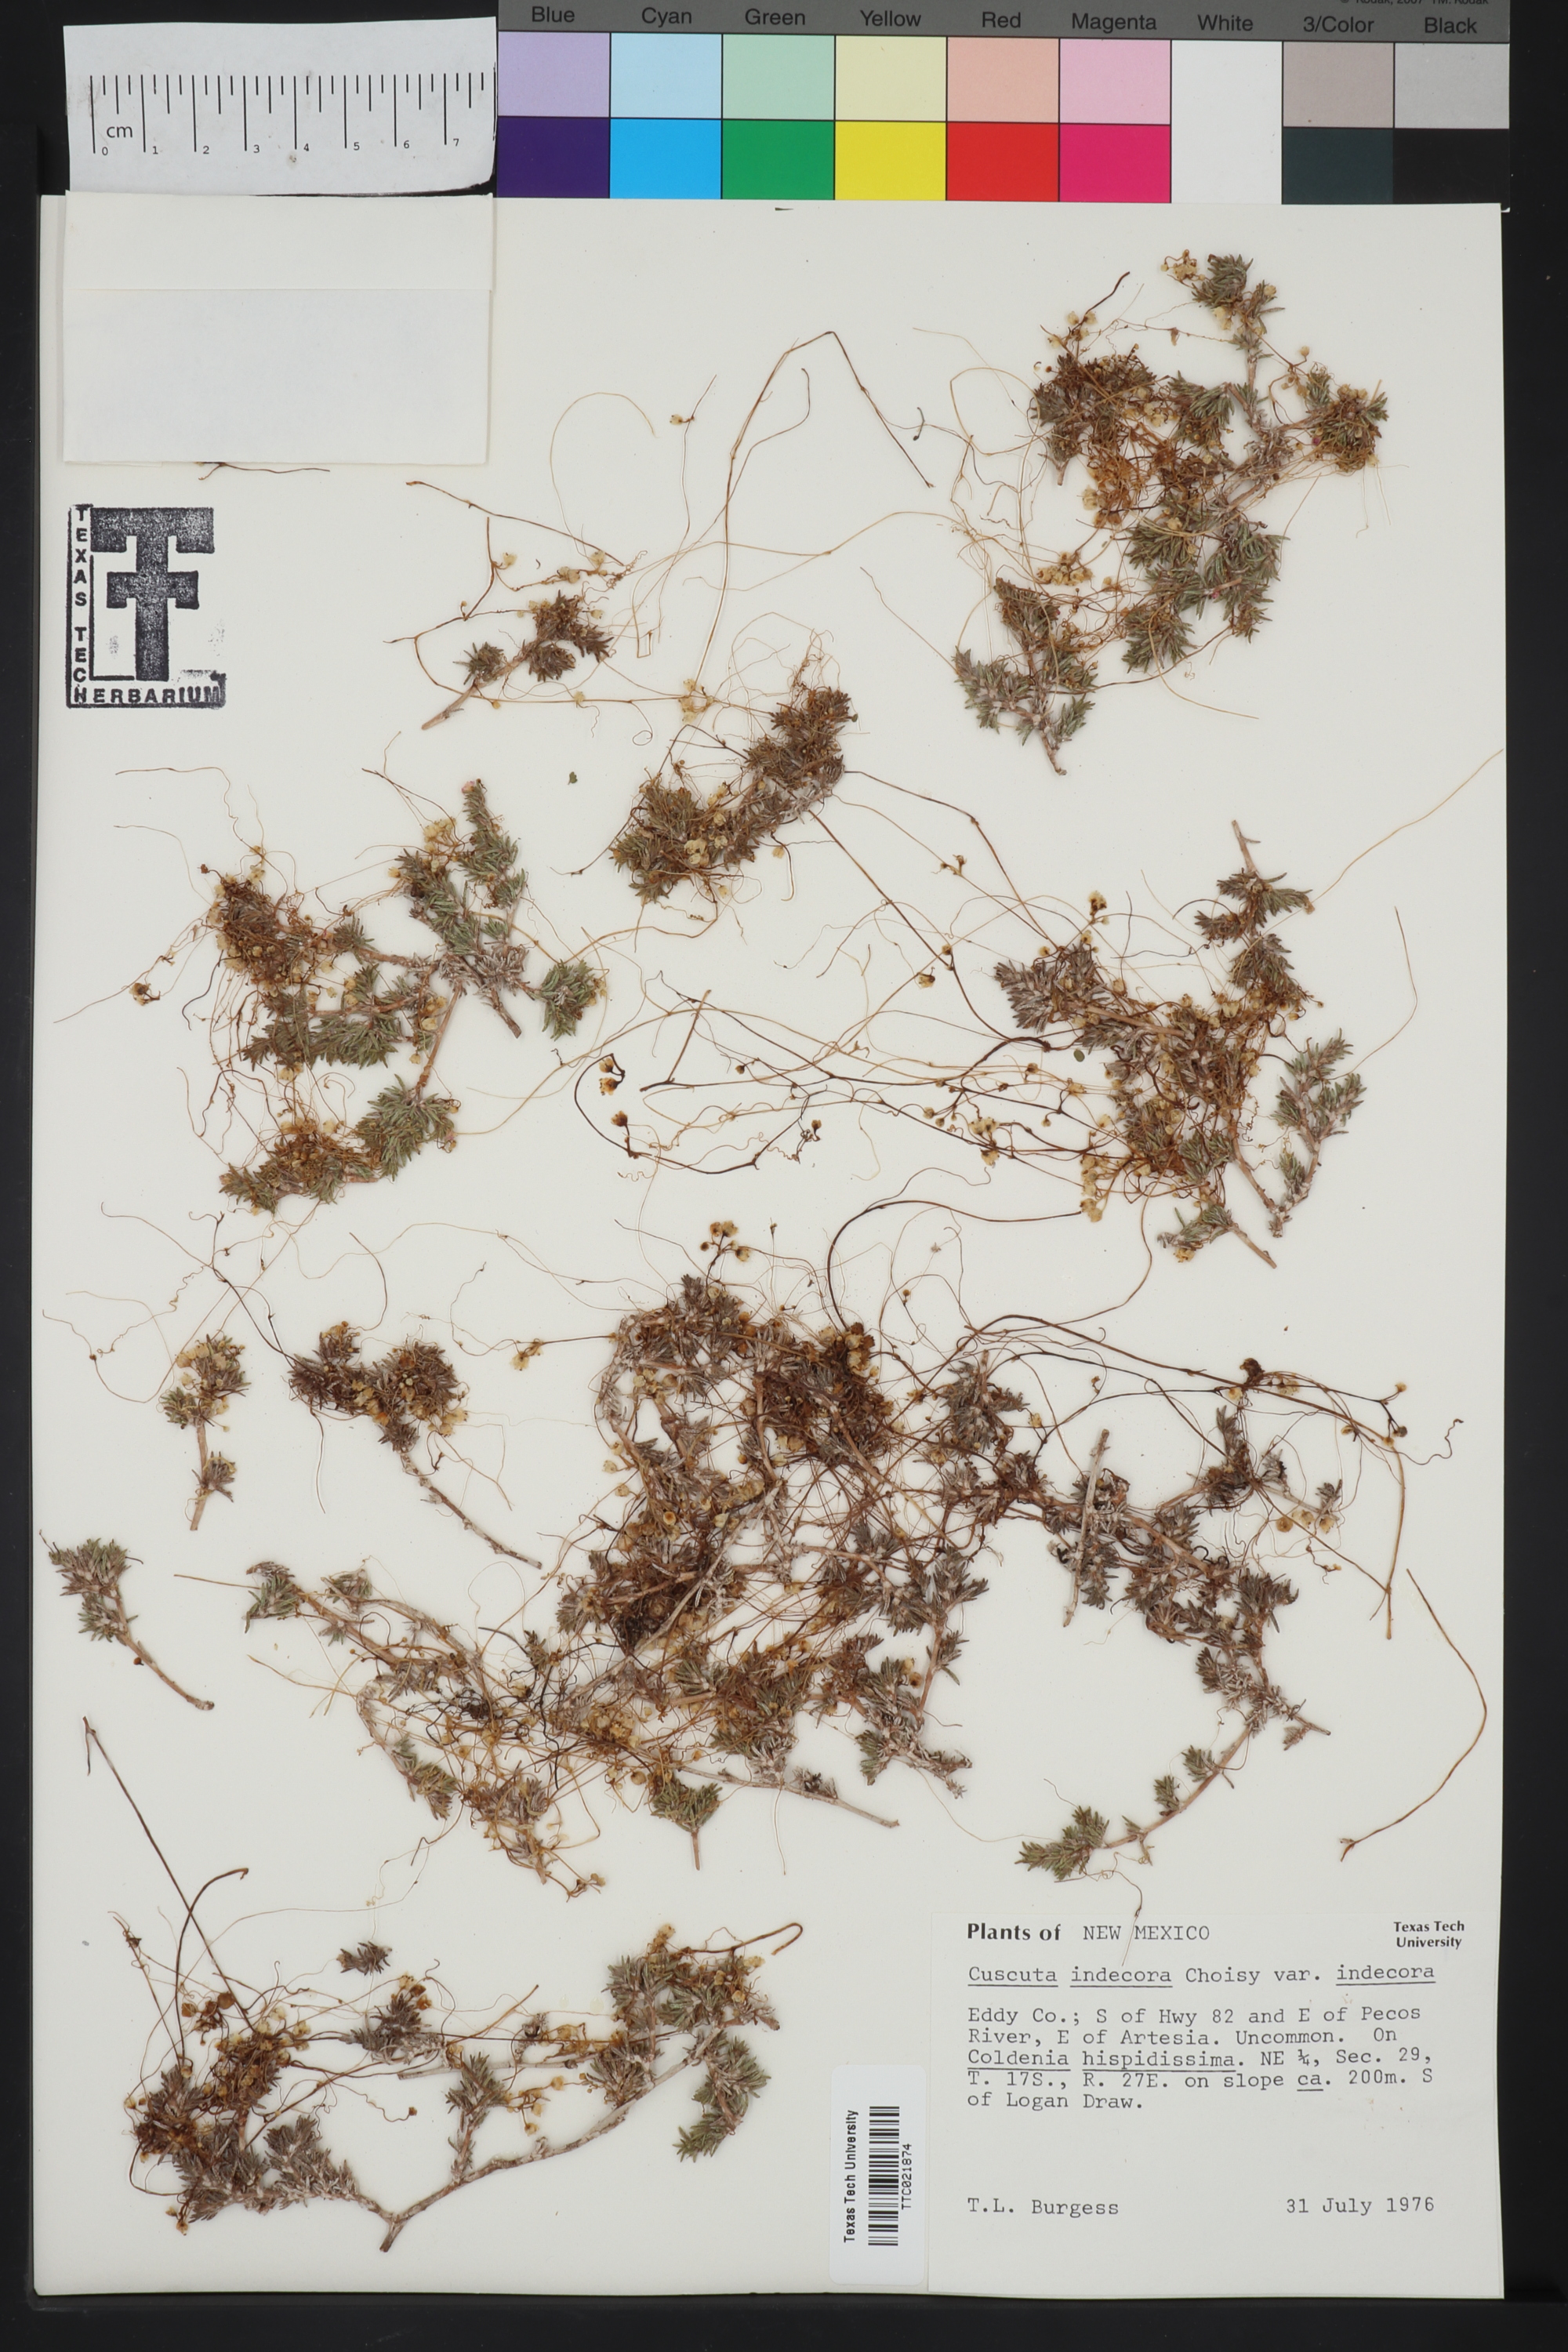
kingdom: Plantae
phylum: Tracheophyta
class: Magnoliopsida
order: Solanales
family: Convolvulaceae
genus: Cuscuta
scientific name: Cuscuta indecora
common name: Large-seed dodder
